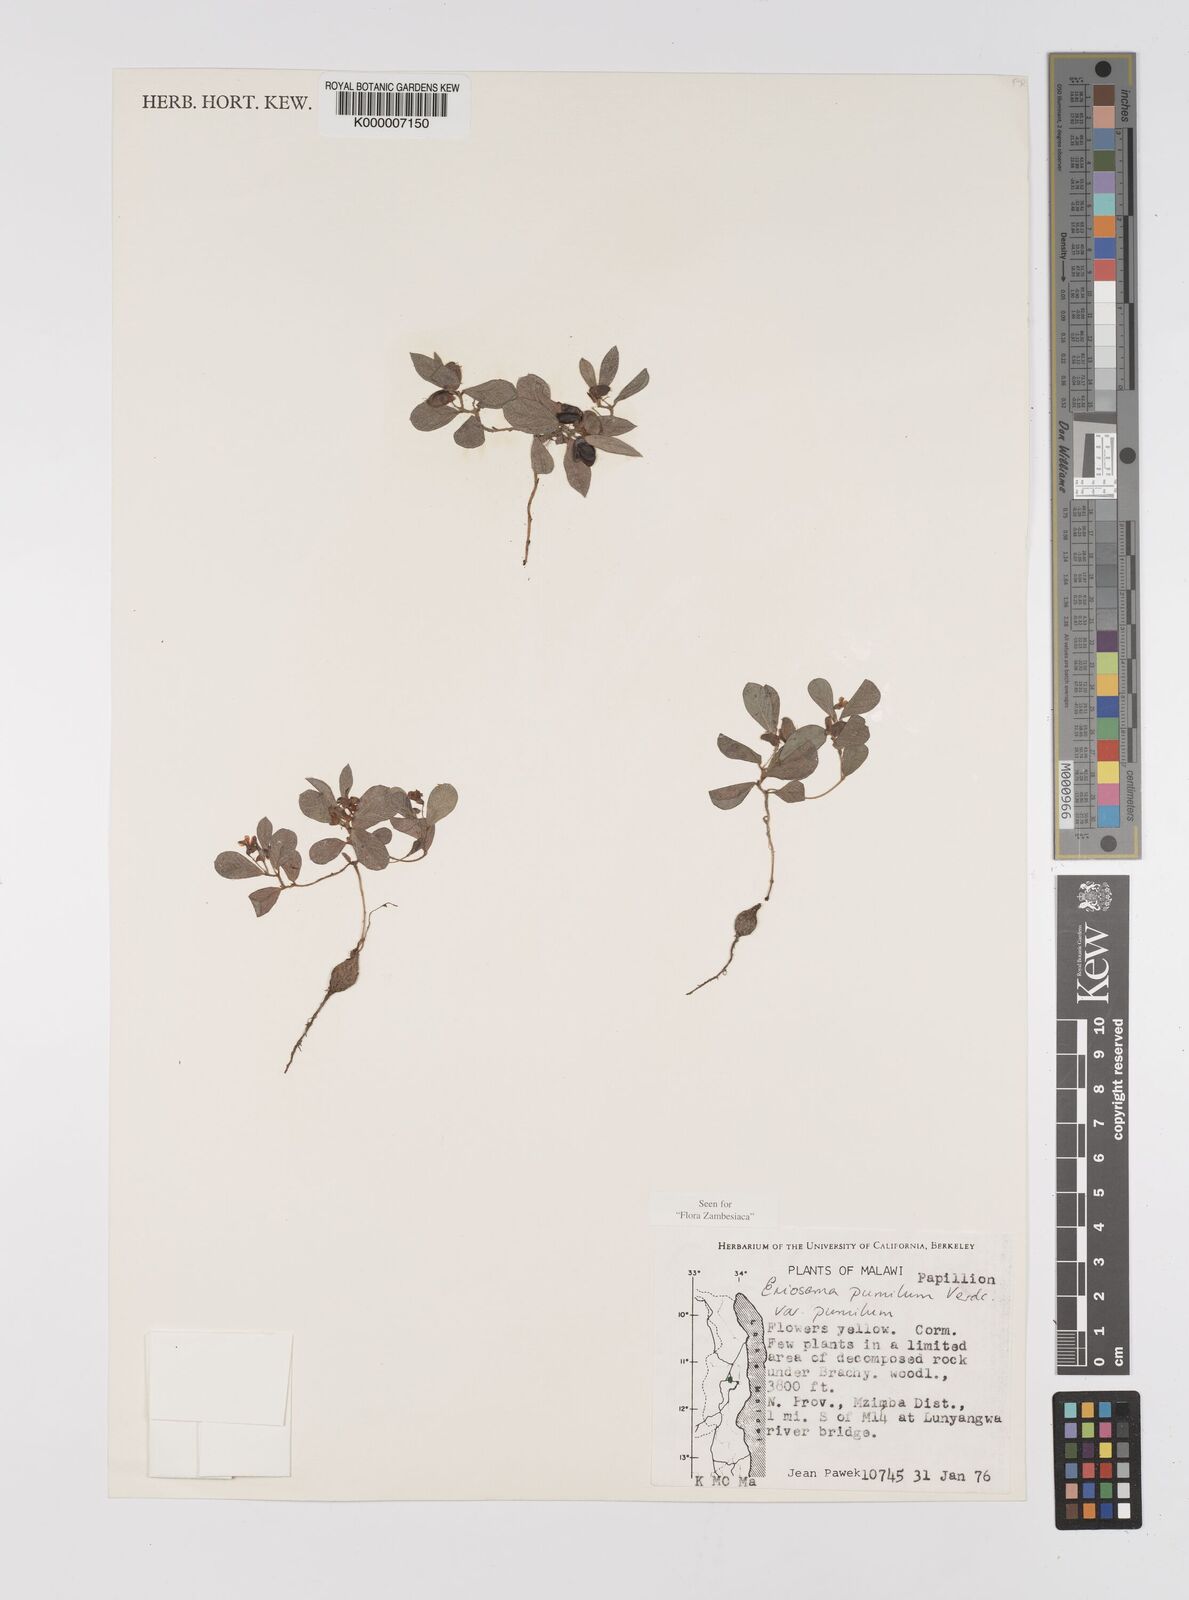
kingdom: Plantae
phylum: Tracheophyta
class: Magnoliopsida
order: Fabales
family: Fabaceae
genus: Eriosema
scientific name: Eriosema pumilum
